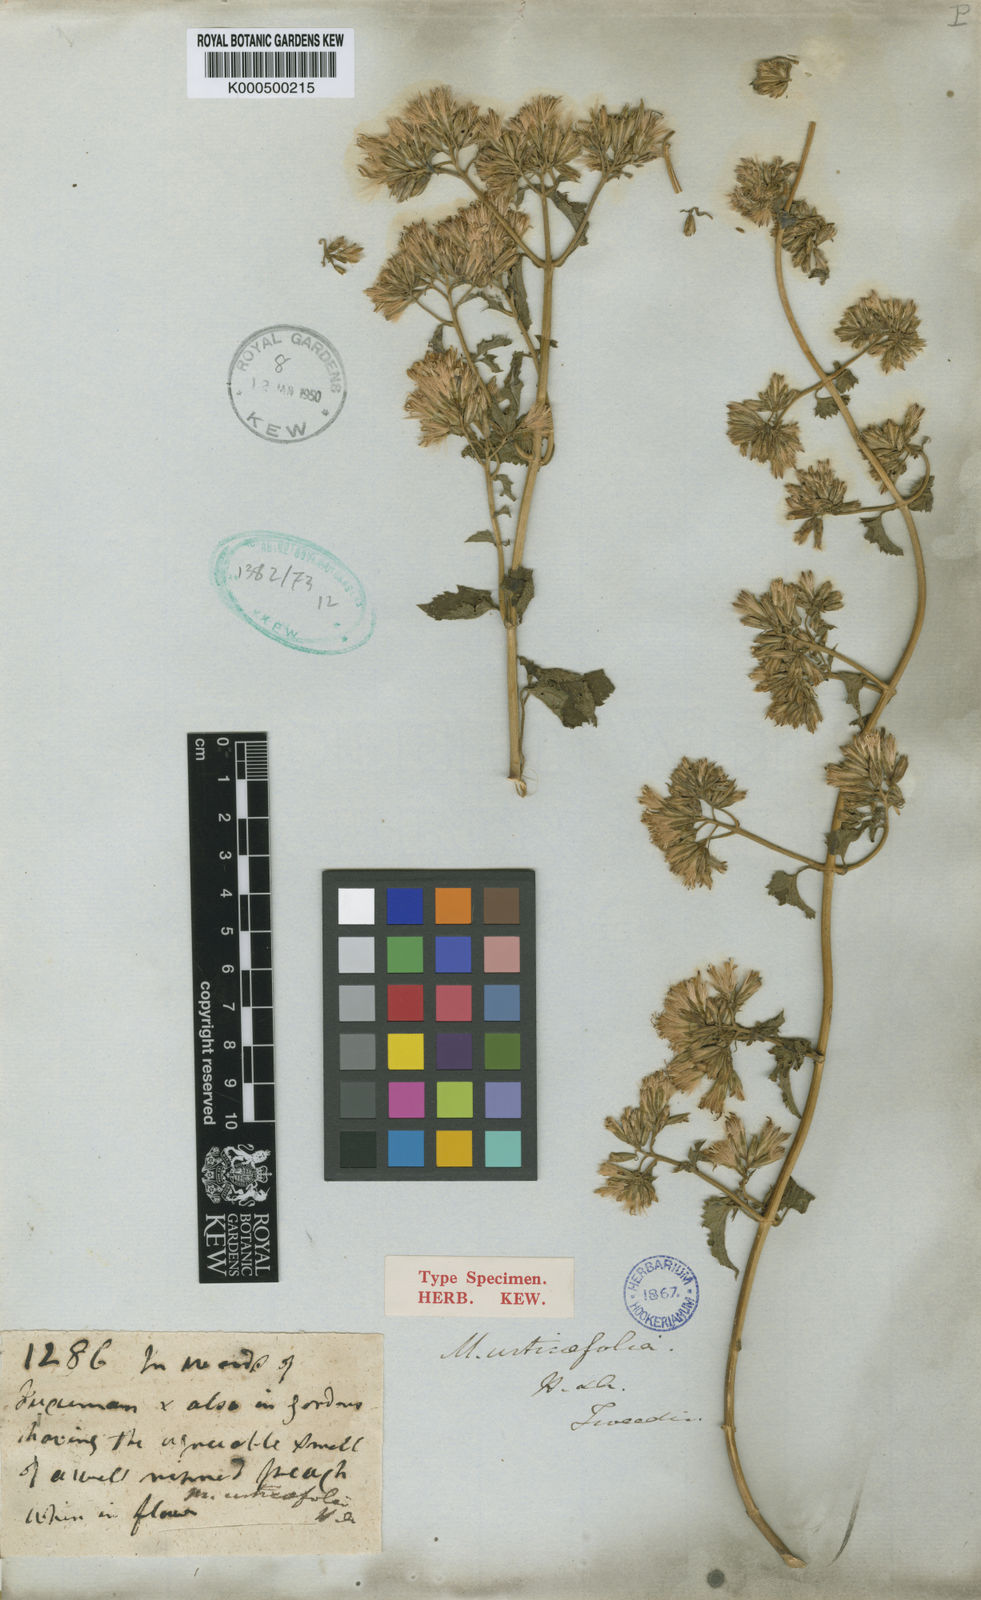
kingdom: Plantae
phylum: Tracheophyta
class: Magnoliopsida
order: Asterales
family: Asteraceae
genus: Mikania
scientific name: Mikania cordifolia
